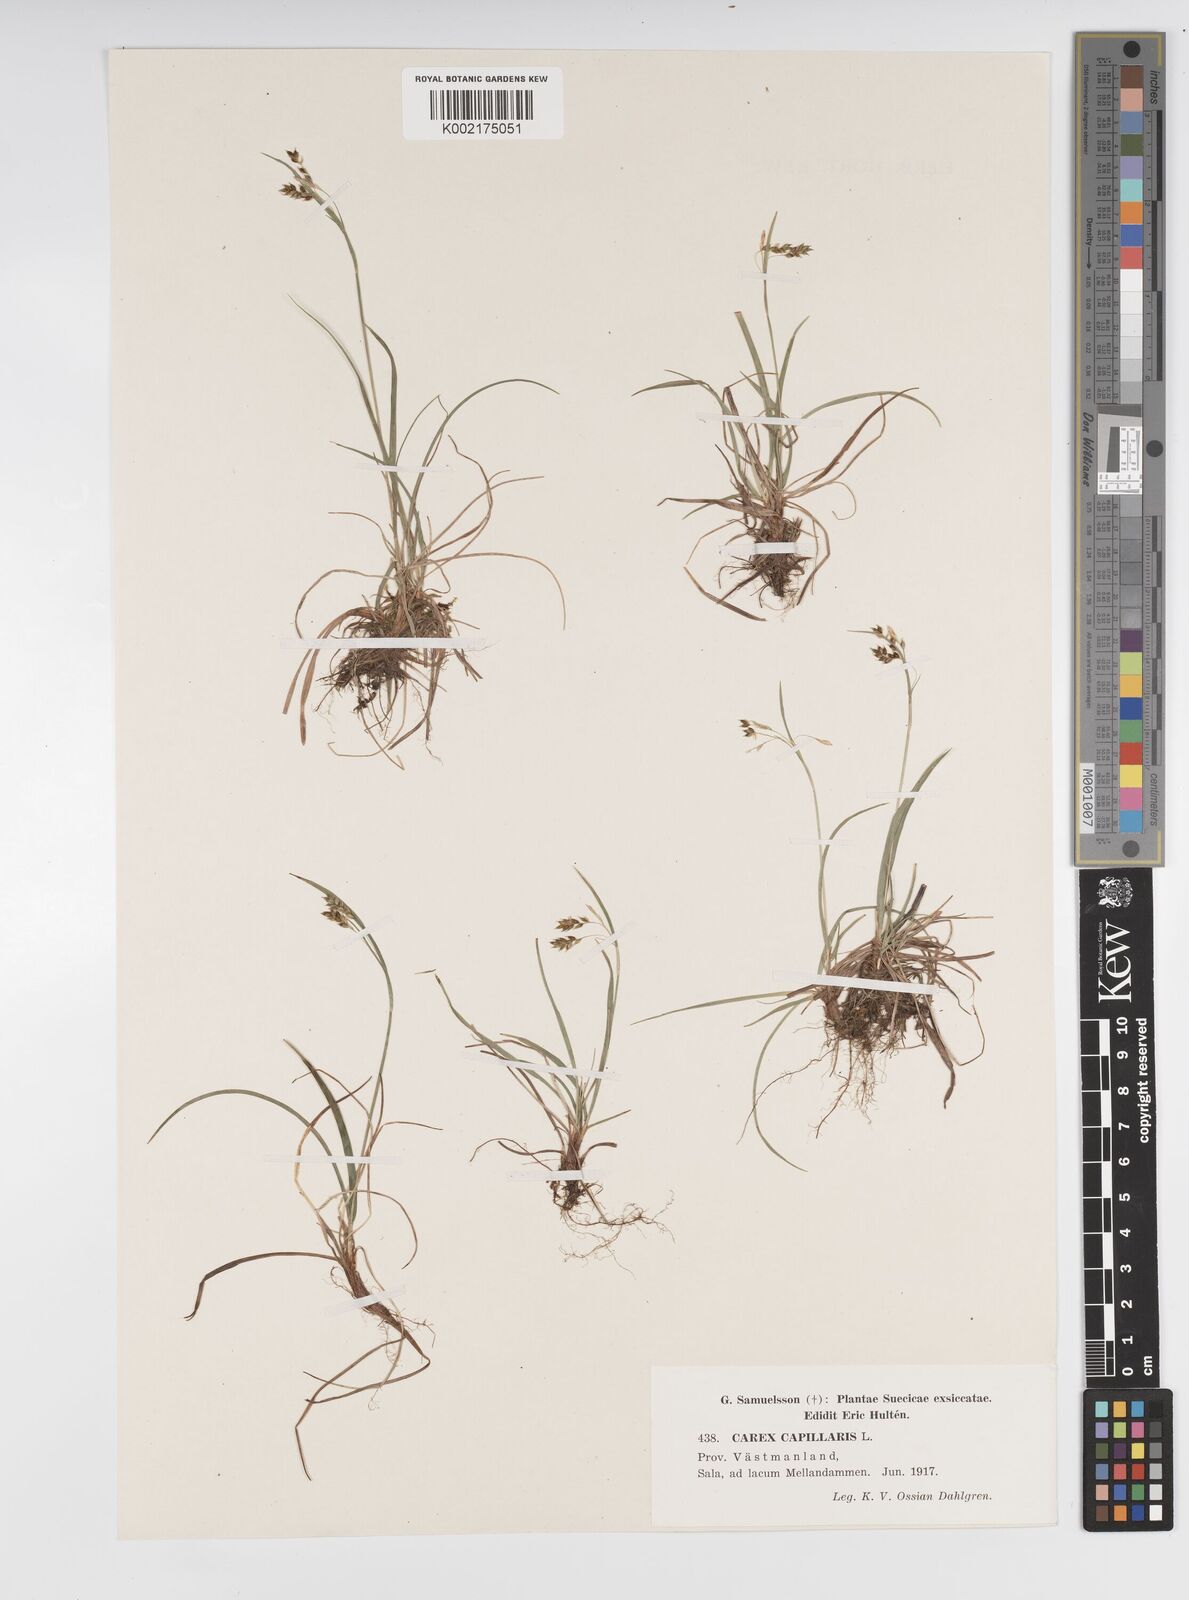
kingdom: Plantae
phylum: Tracheophyta
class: Liliopsida
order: Poales
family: Cyperaceae
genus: Carex
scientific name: Carex capillaris
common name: Hair sedge
